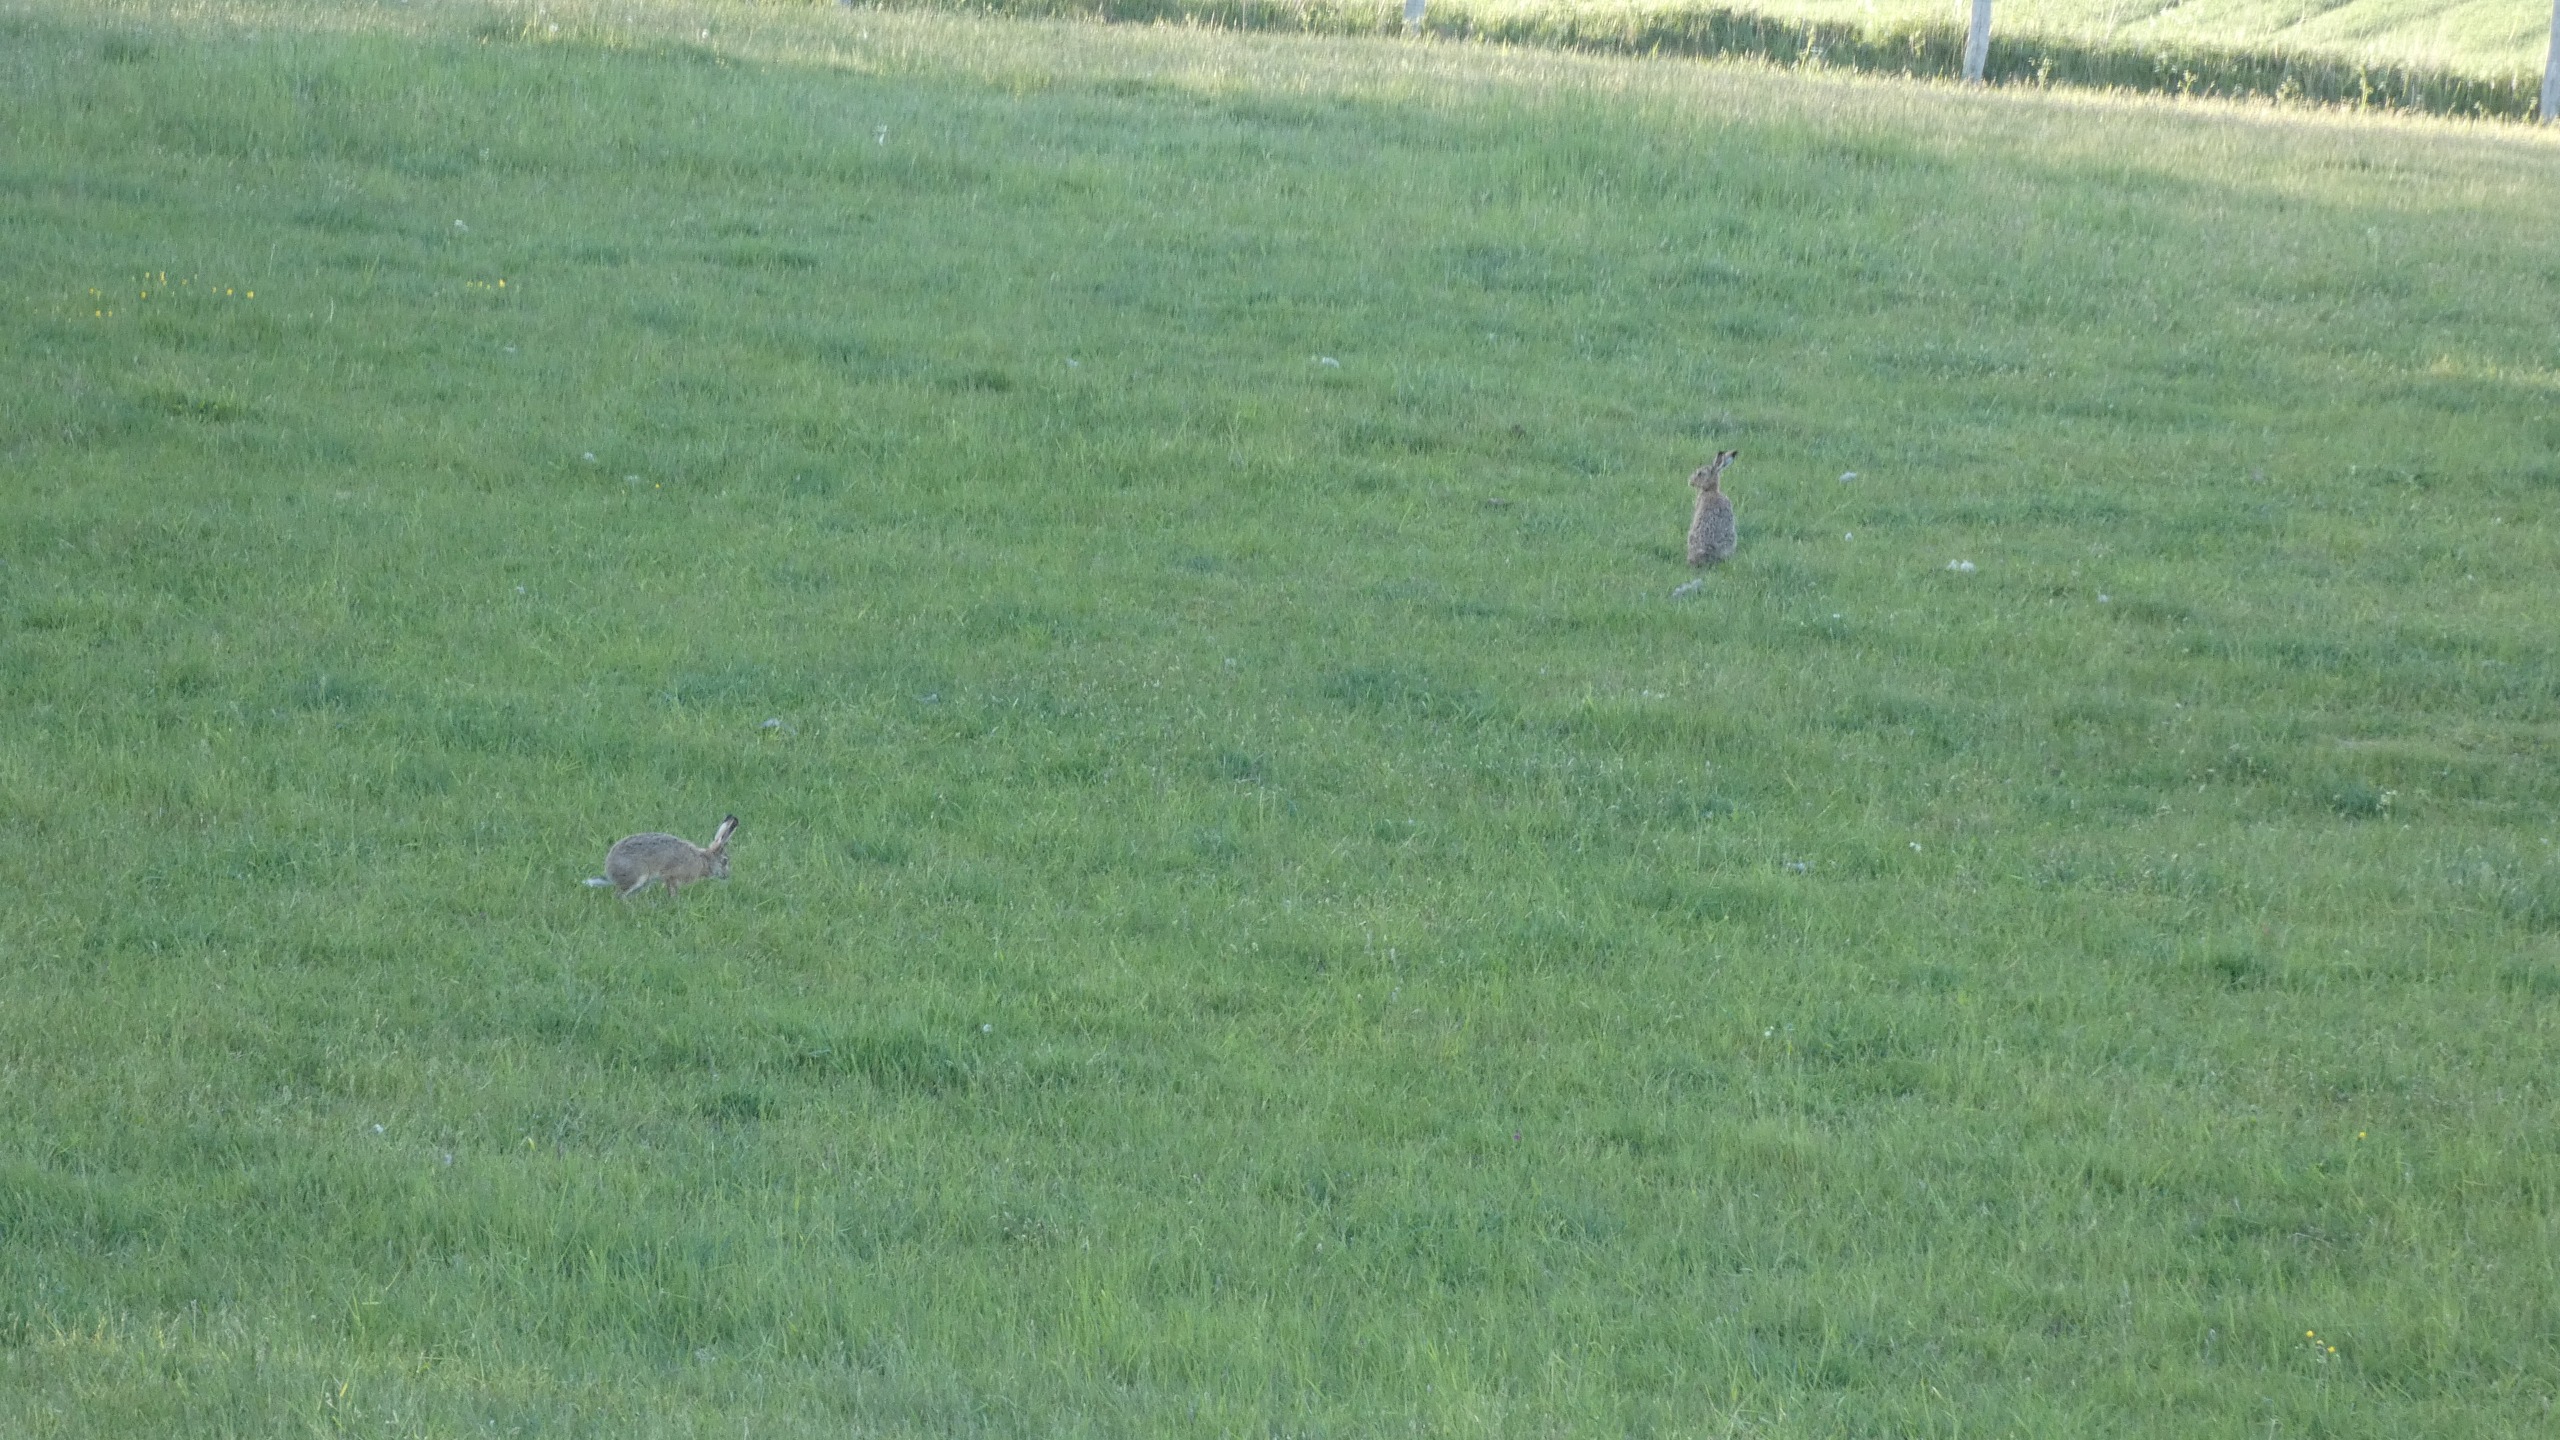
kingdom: Animalia
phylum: Chordata
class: Mammalia
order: Lagomorpha
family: Leporidae
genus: Lepus
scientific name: Lepus europaeus
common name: Hare
